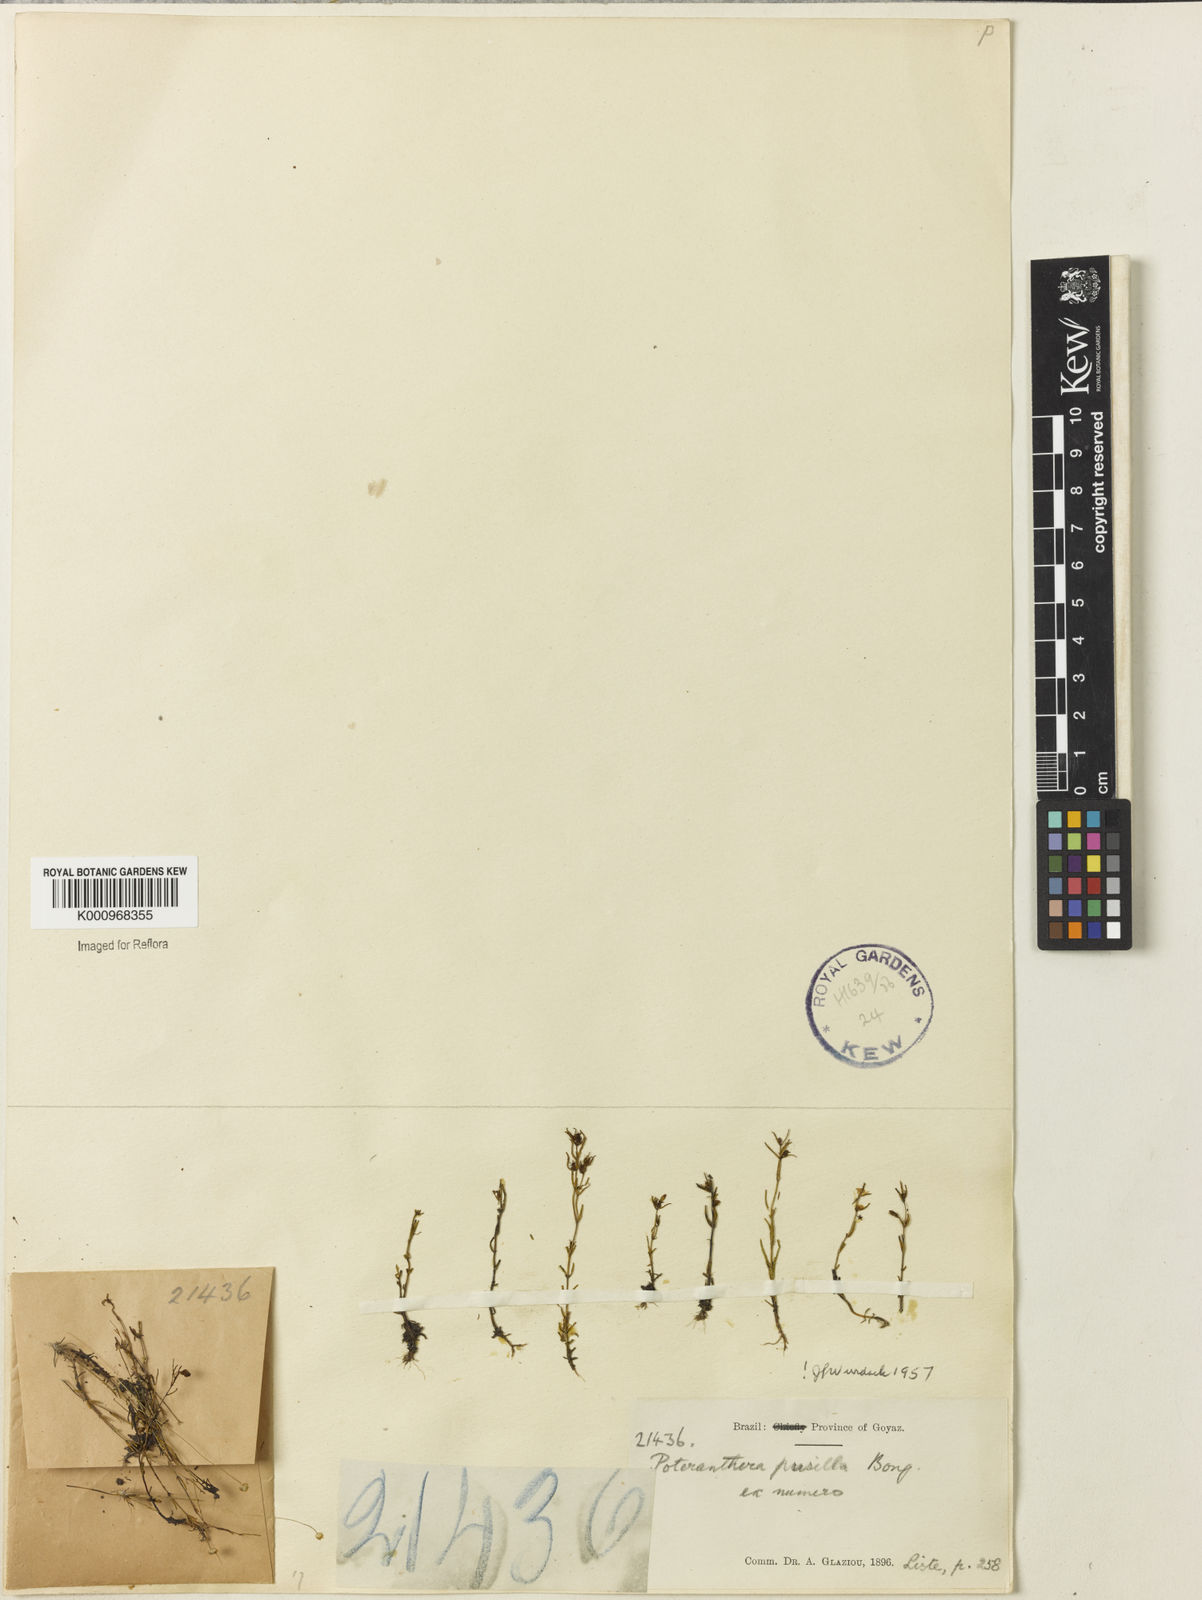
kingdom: Plantae
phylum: Tracheophyta
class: Magnoliopsida
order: Myrtales
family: Melastomataceae
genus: Poteranthera
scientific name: Poteranthera pusilla
